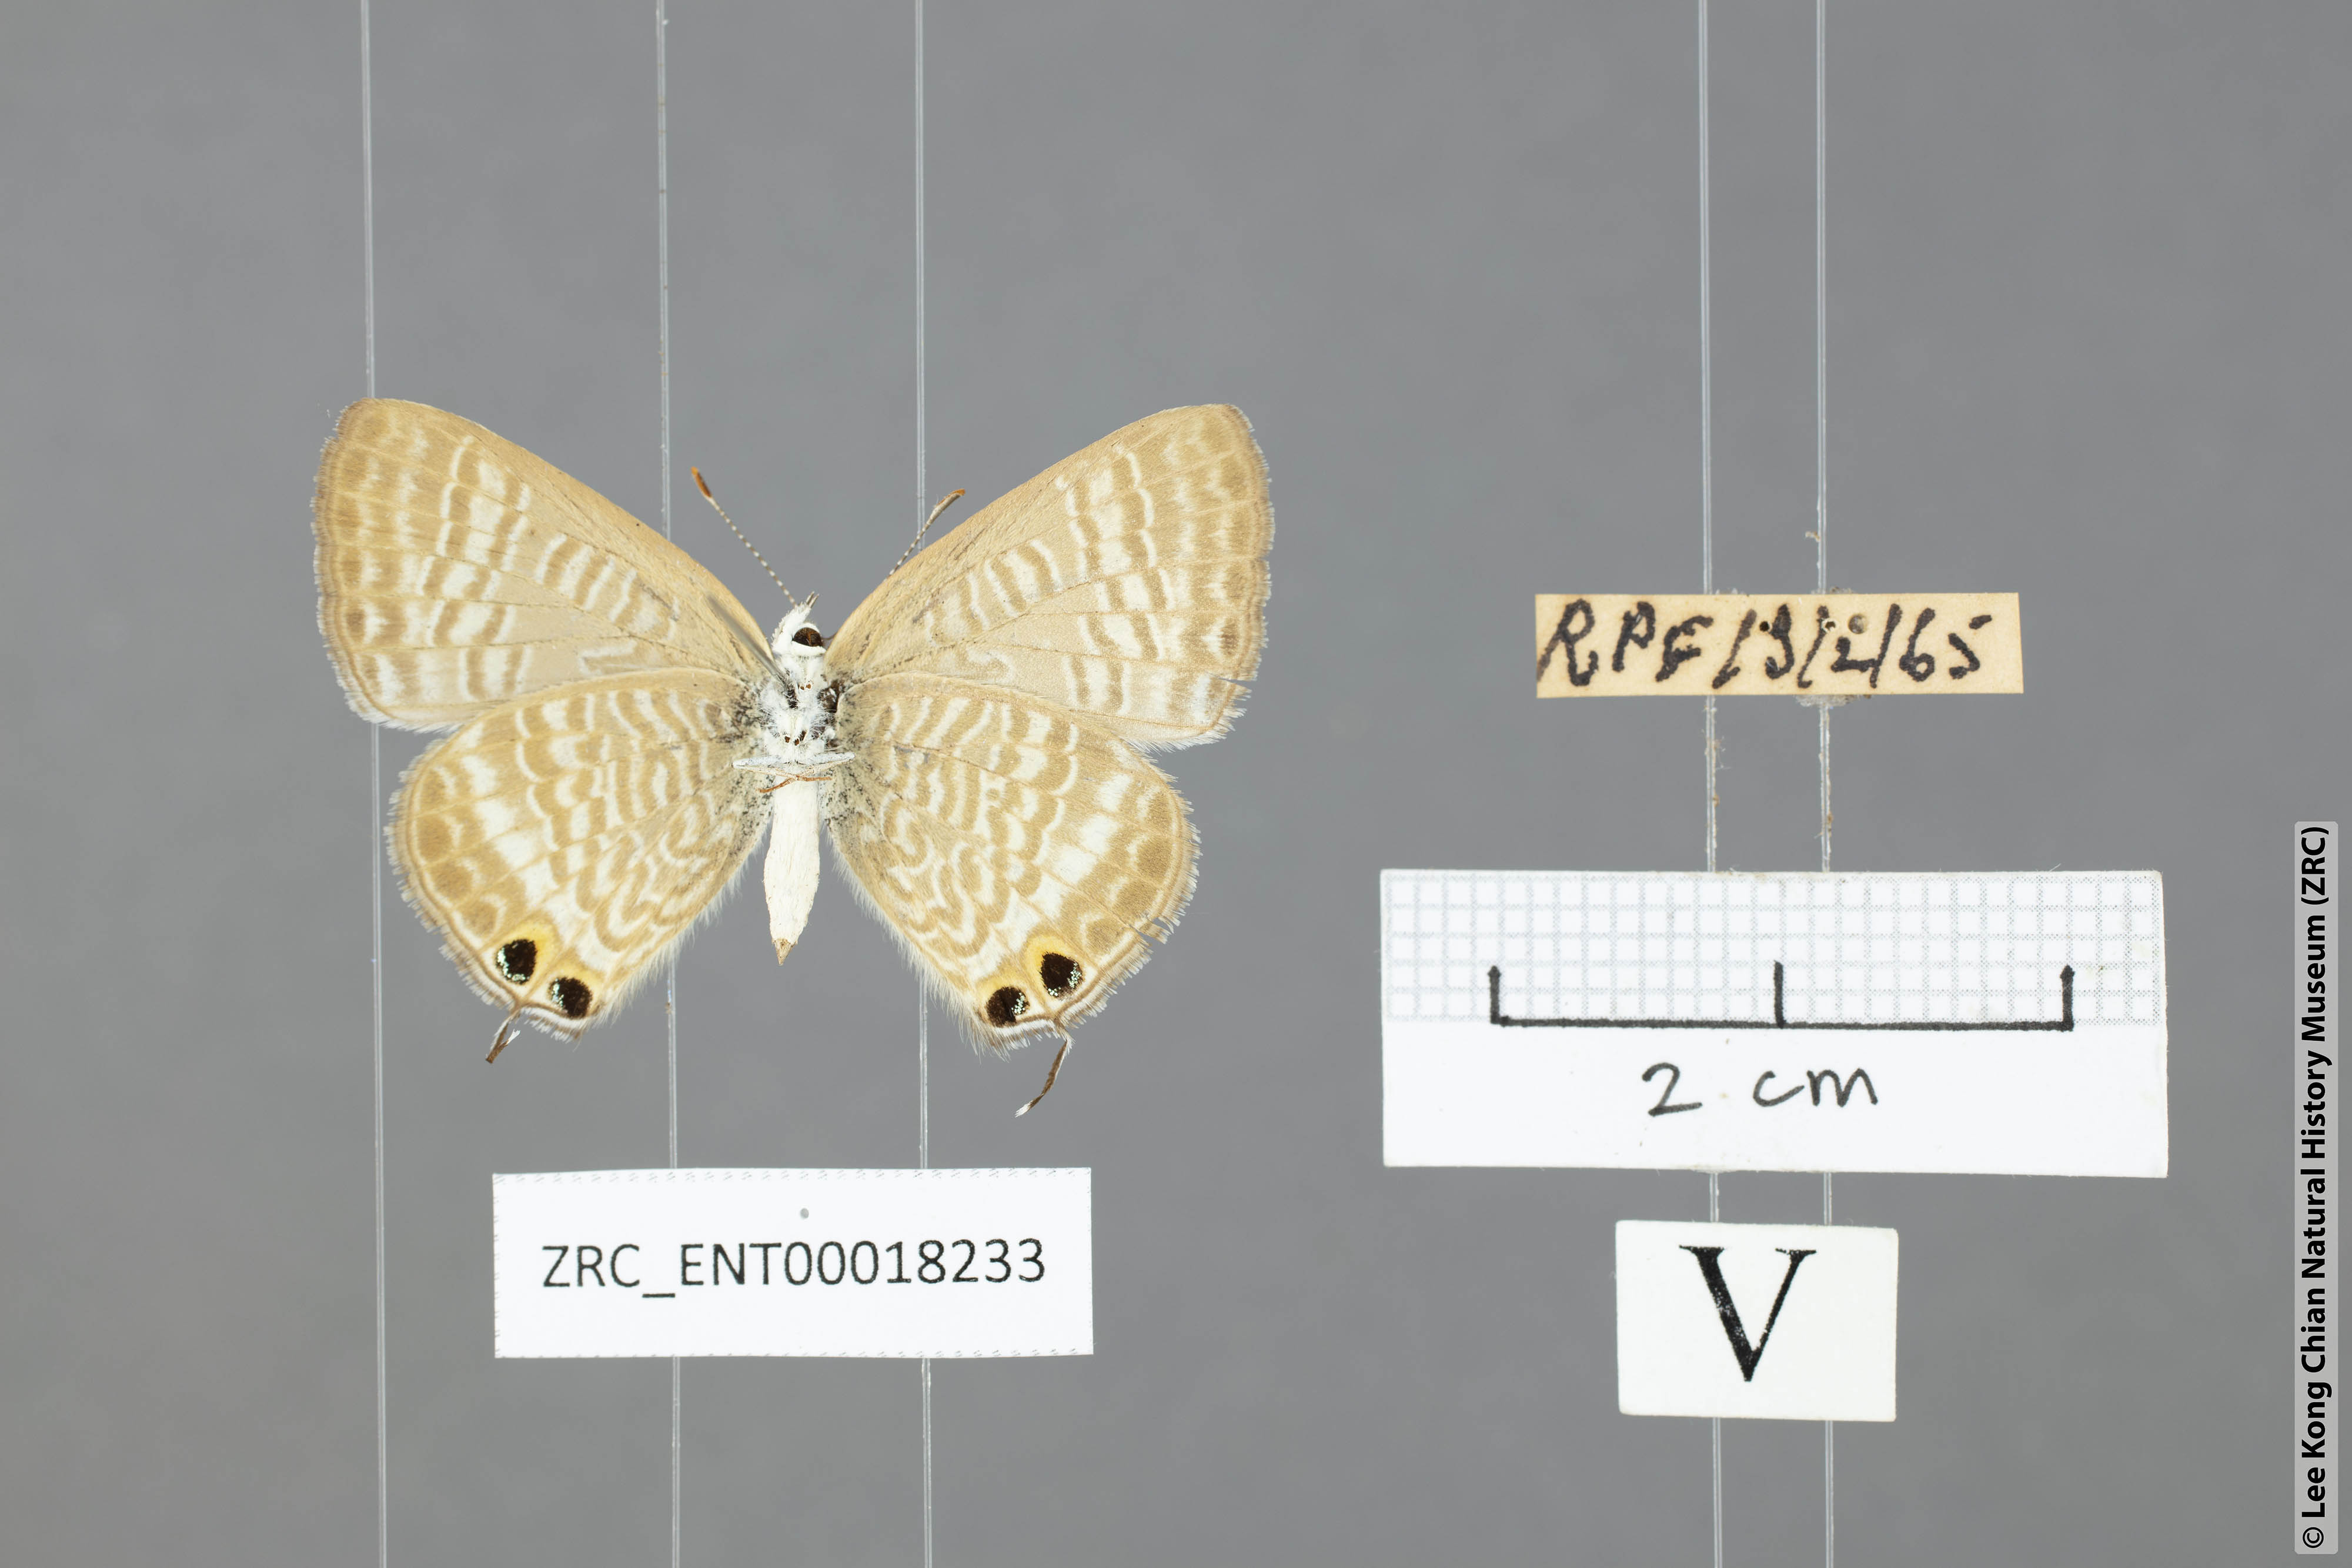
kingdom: Animalia
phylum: Arthropoda
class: Insecta
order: Lepidoptera
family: Lycaenidae
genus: Lampides
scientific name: Lampides boeticus
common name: Long-tailed blue
